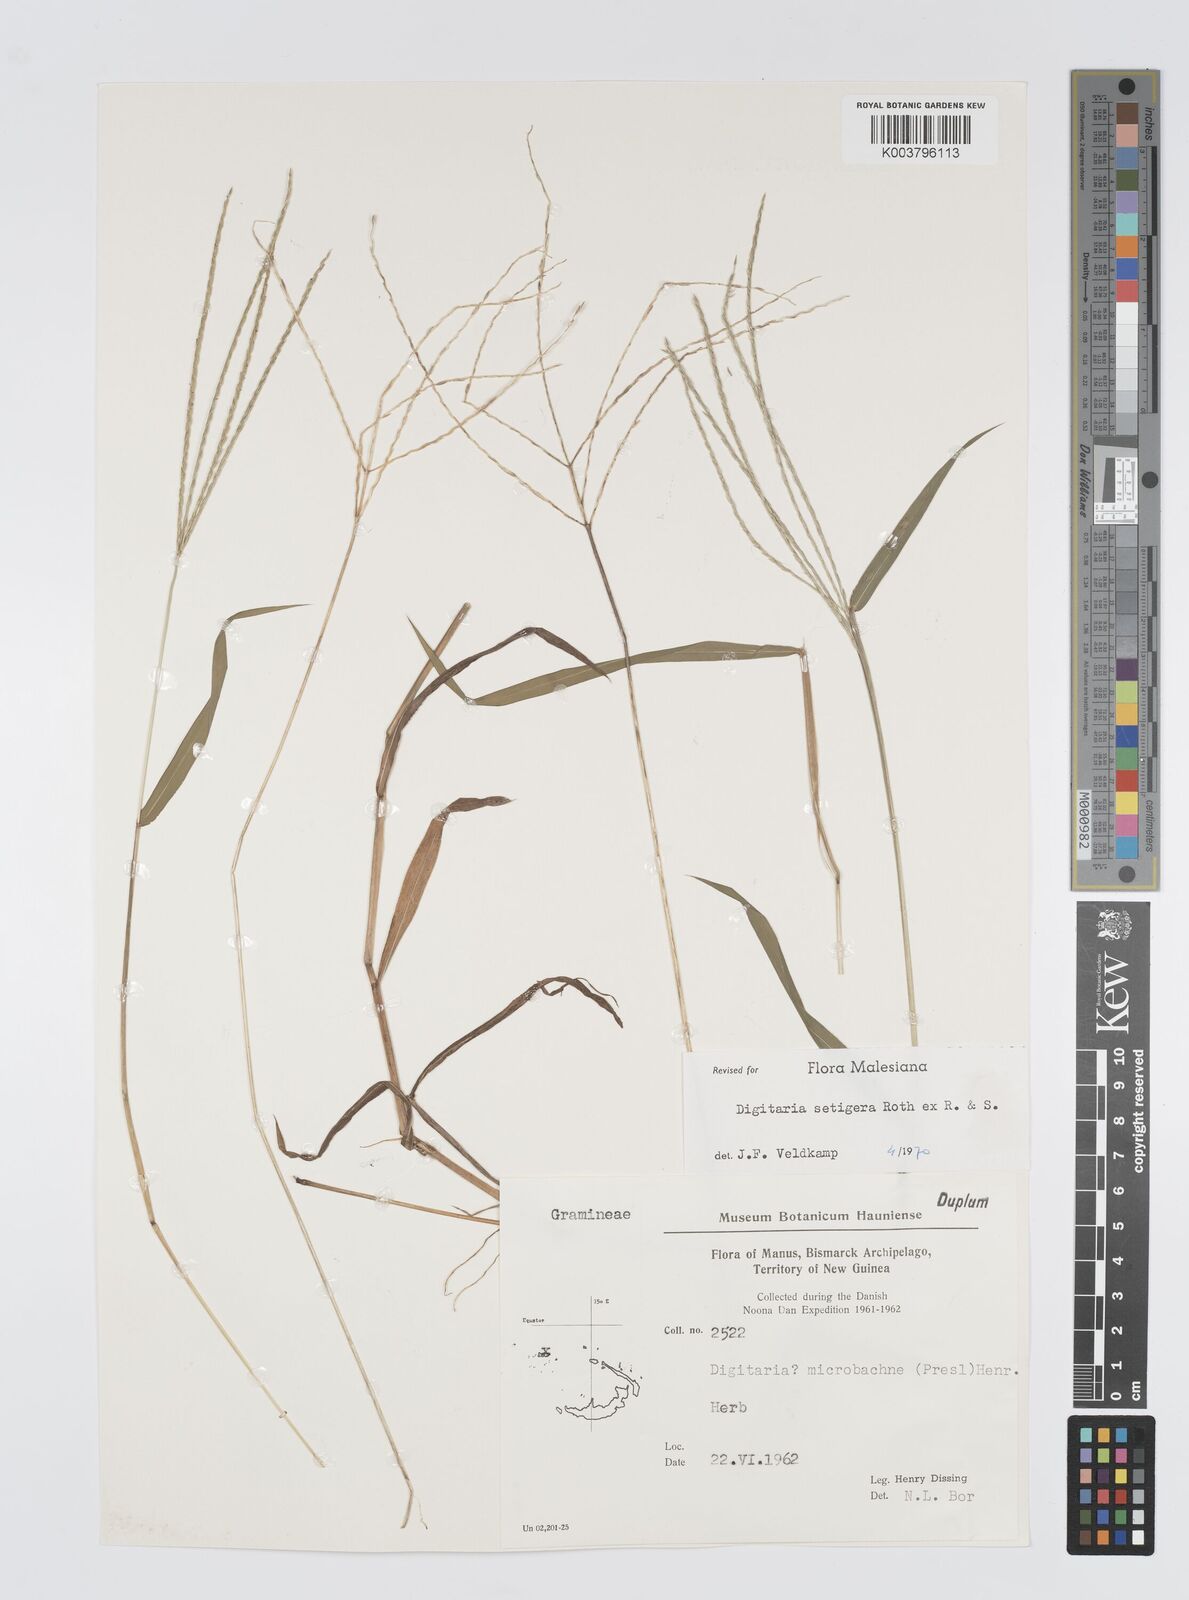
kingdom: Plantae
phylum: Tracheophyta
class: Liliopsida
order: Poales
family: Poaceae
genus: Digitaria
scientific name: Digitaria setigera
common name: East indian crabgrass
